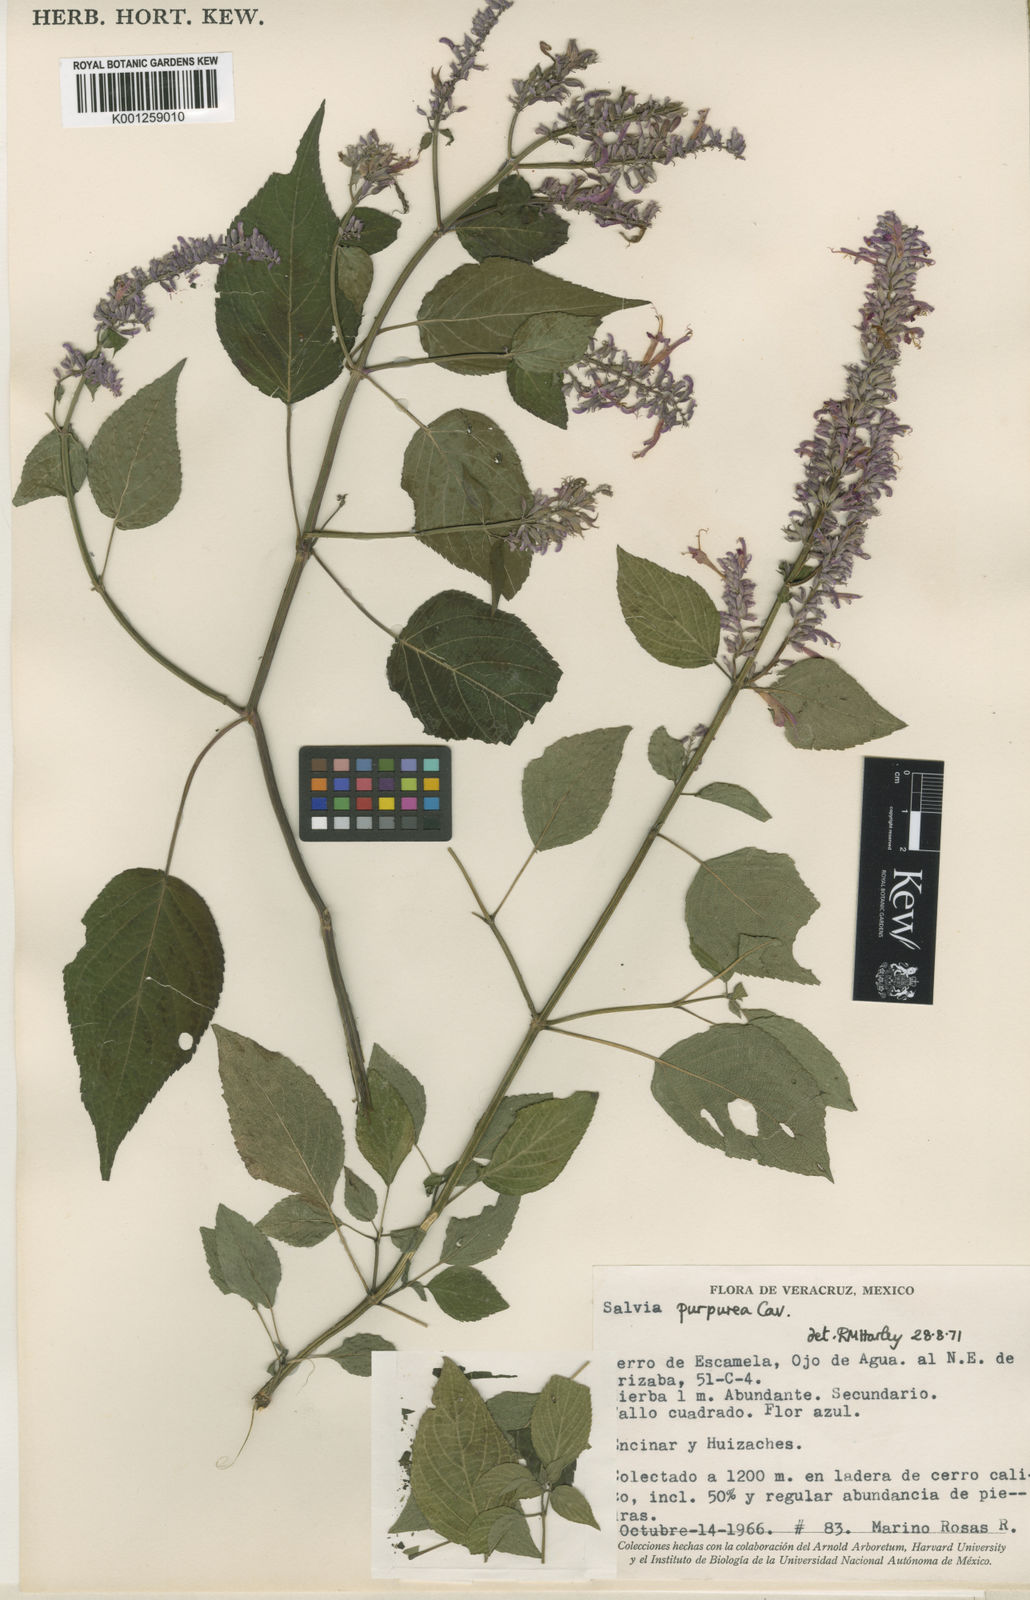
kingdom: Plantae
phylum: Tracheophyta
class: Magnoliopsida
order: Lamiales
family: Lamiaceae
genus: Salvia
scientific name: Salvia purpurea
